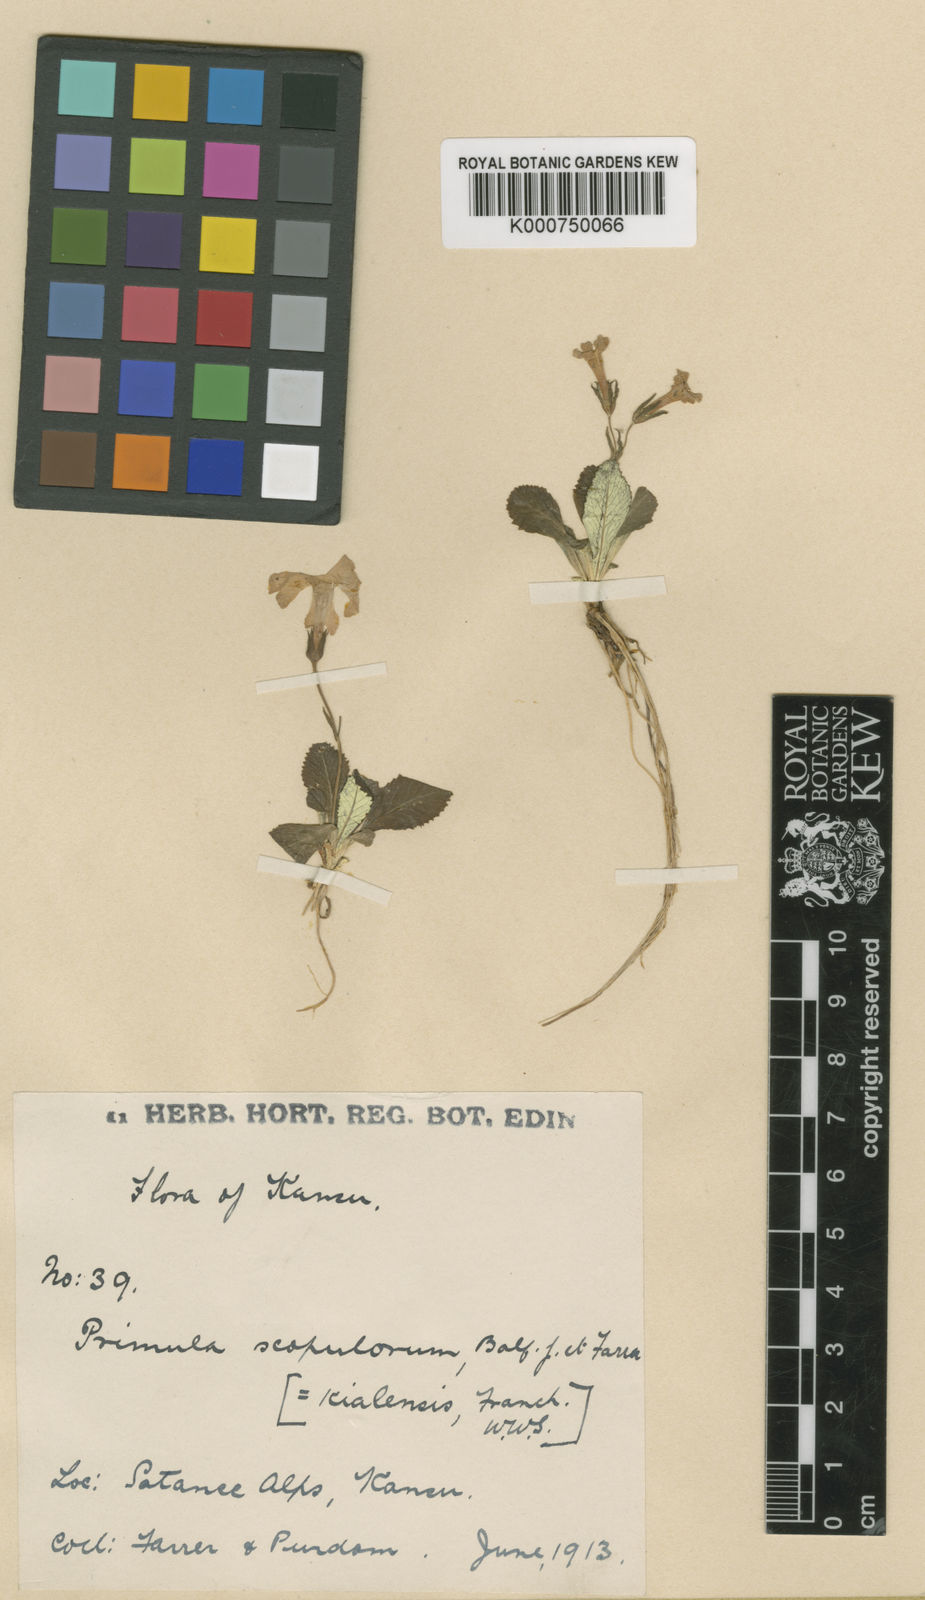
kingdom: Plantae
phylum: Tracheophyta
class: Magnoliopsida
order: Ericales
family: Primulaceae
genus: Primula
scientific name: Primula tayloriana
